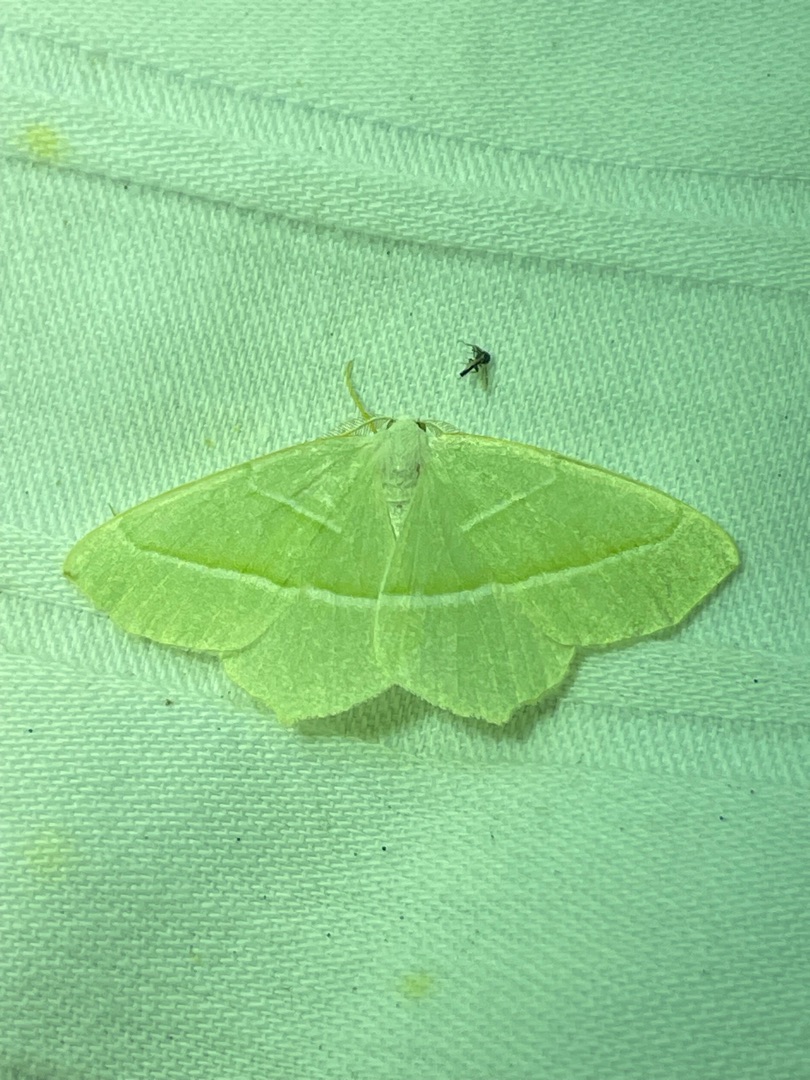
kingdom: Animalia
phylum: Arthropoda
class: Insecta
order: Lepidoptera
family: Geometridae
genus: Campaea
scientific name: Campaea margaritaria
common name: Perlemåler
